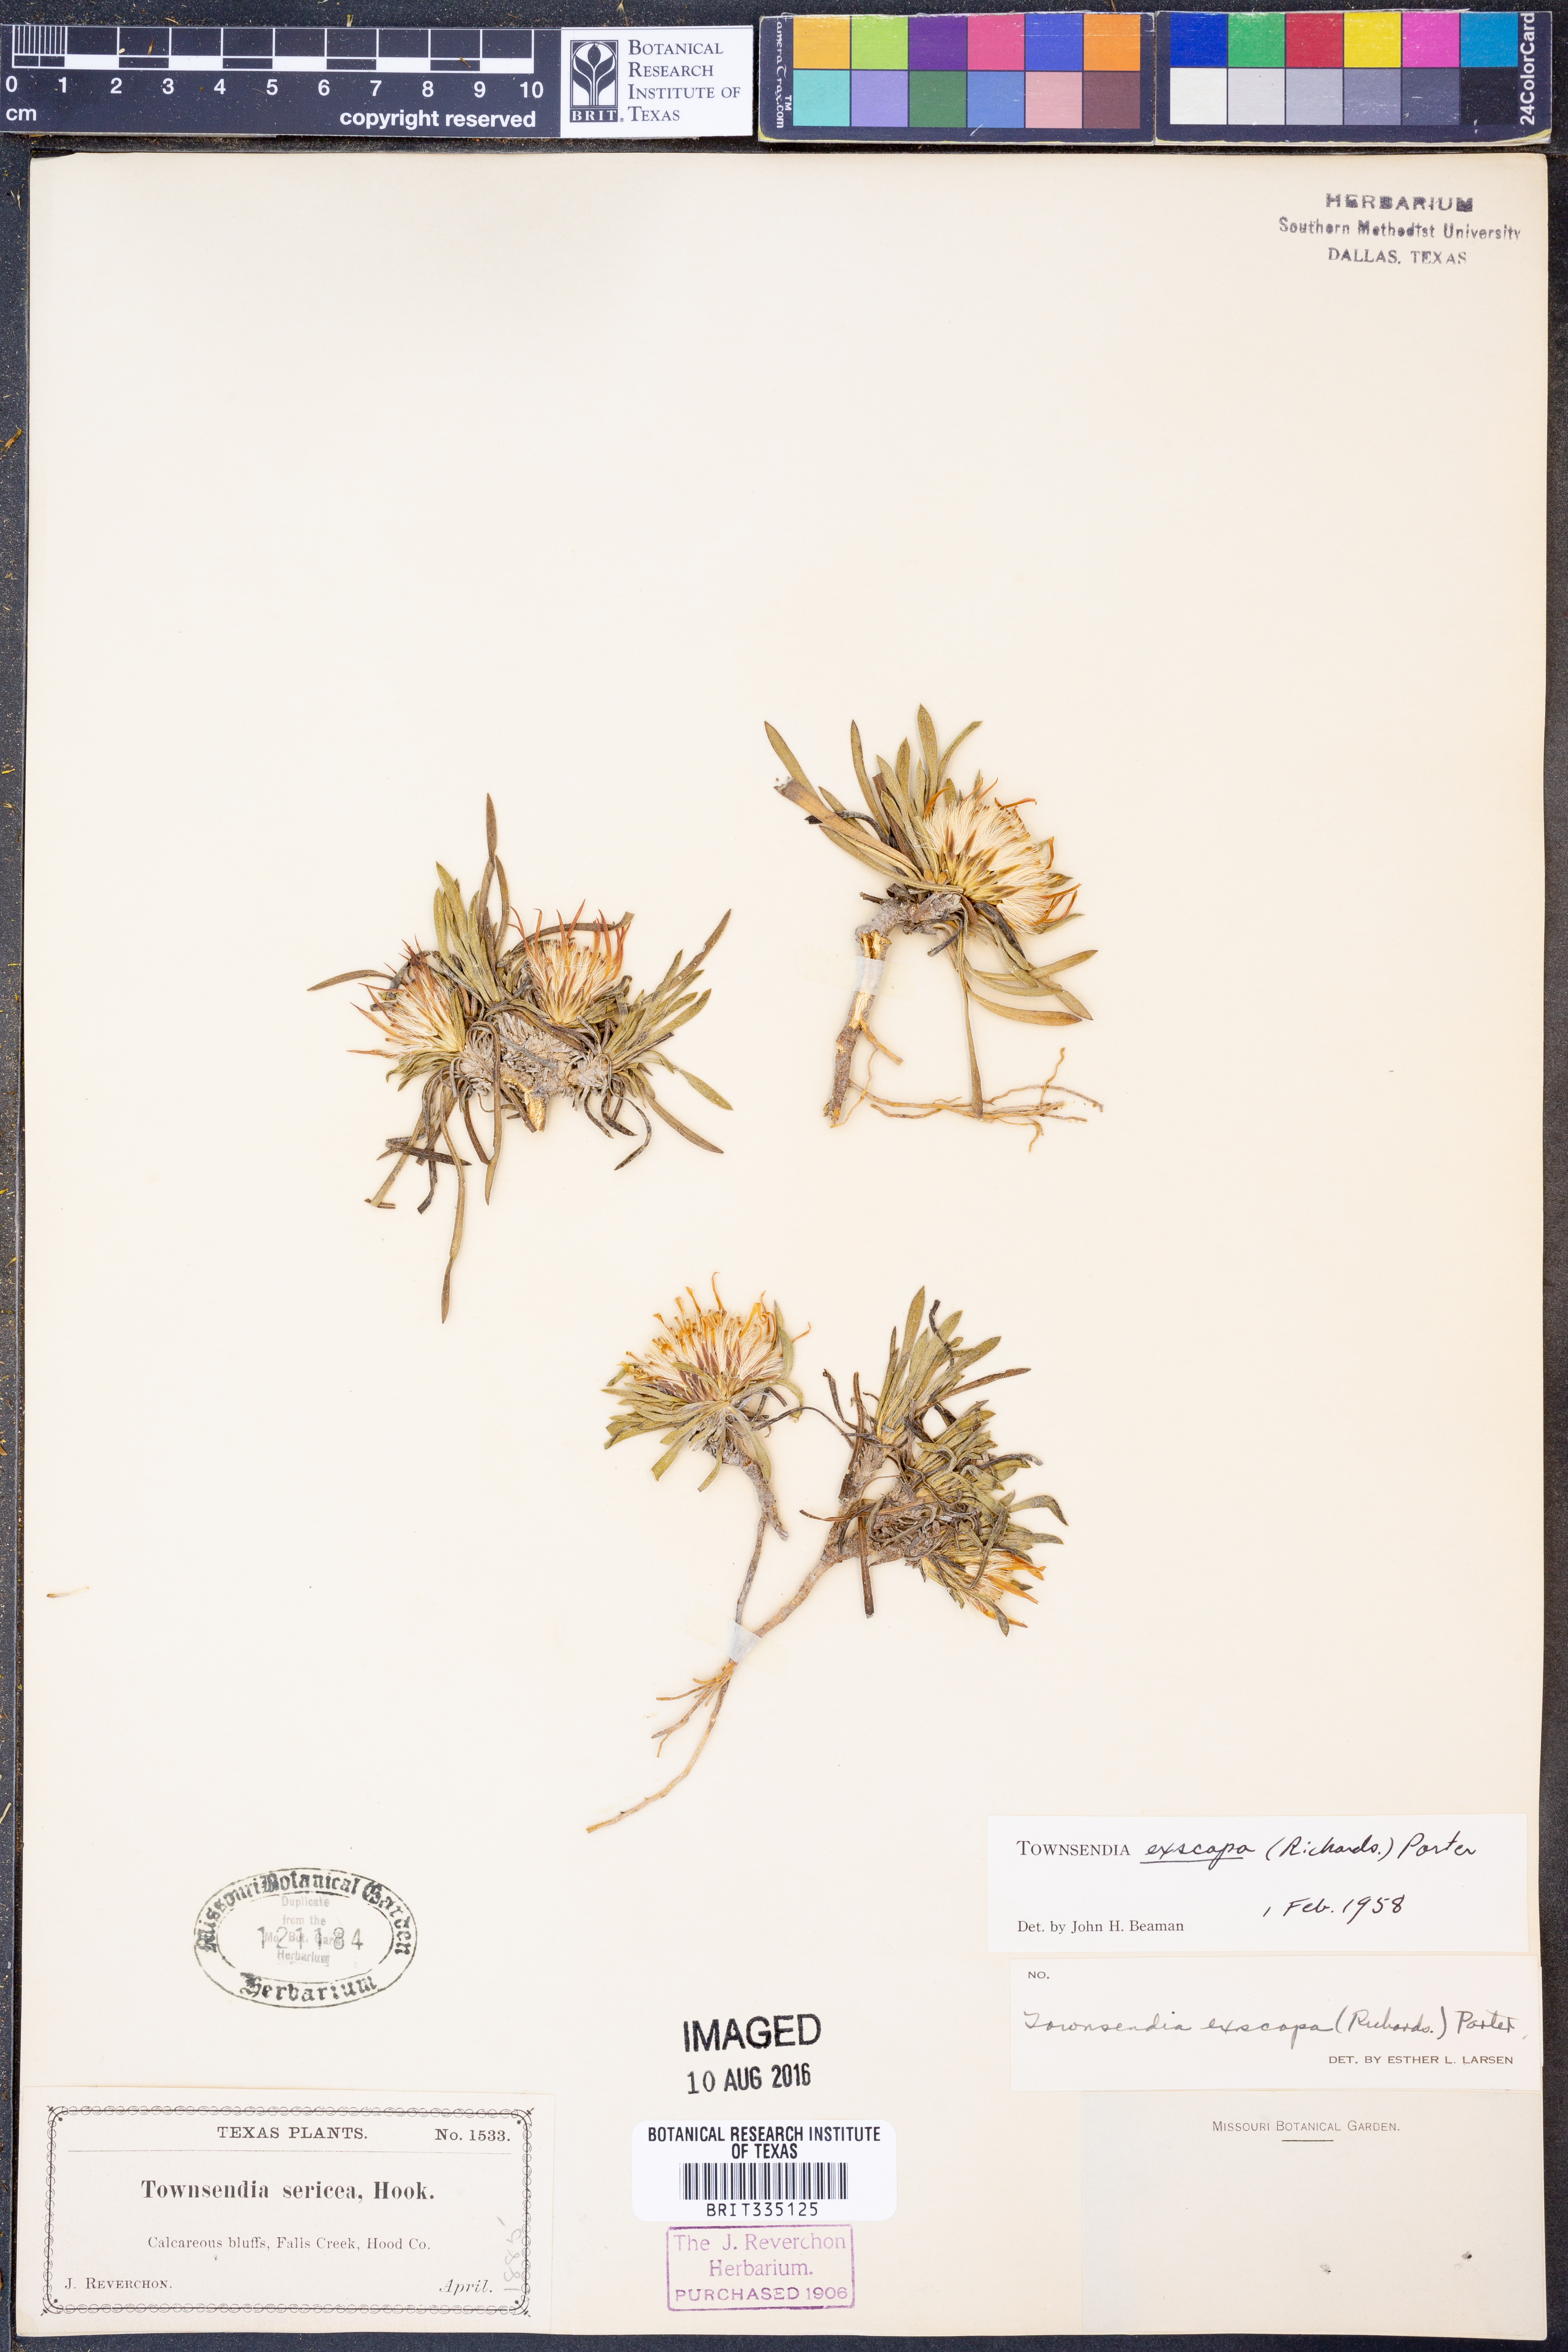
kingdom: Plantae
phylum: Tracheophyta
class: Magnoliopsida
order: Asterales
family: Asteraceae
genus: Townsendia
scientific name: Townsendia exscapa
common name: Dwarf townsendia
